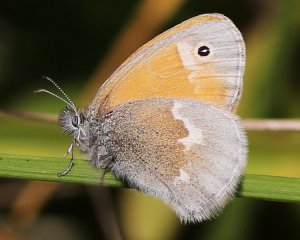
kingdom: Animalia
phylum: Arthropoda
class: Insecta
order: Lepidoptera
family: Nymphalidae
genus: Coenonympha
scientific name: Coenonympha tullia
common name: Large Heath
